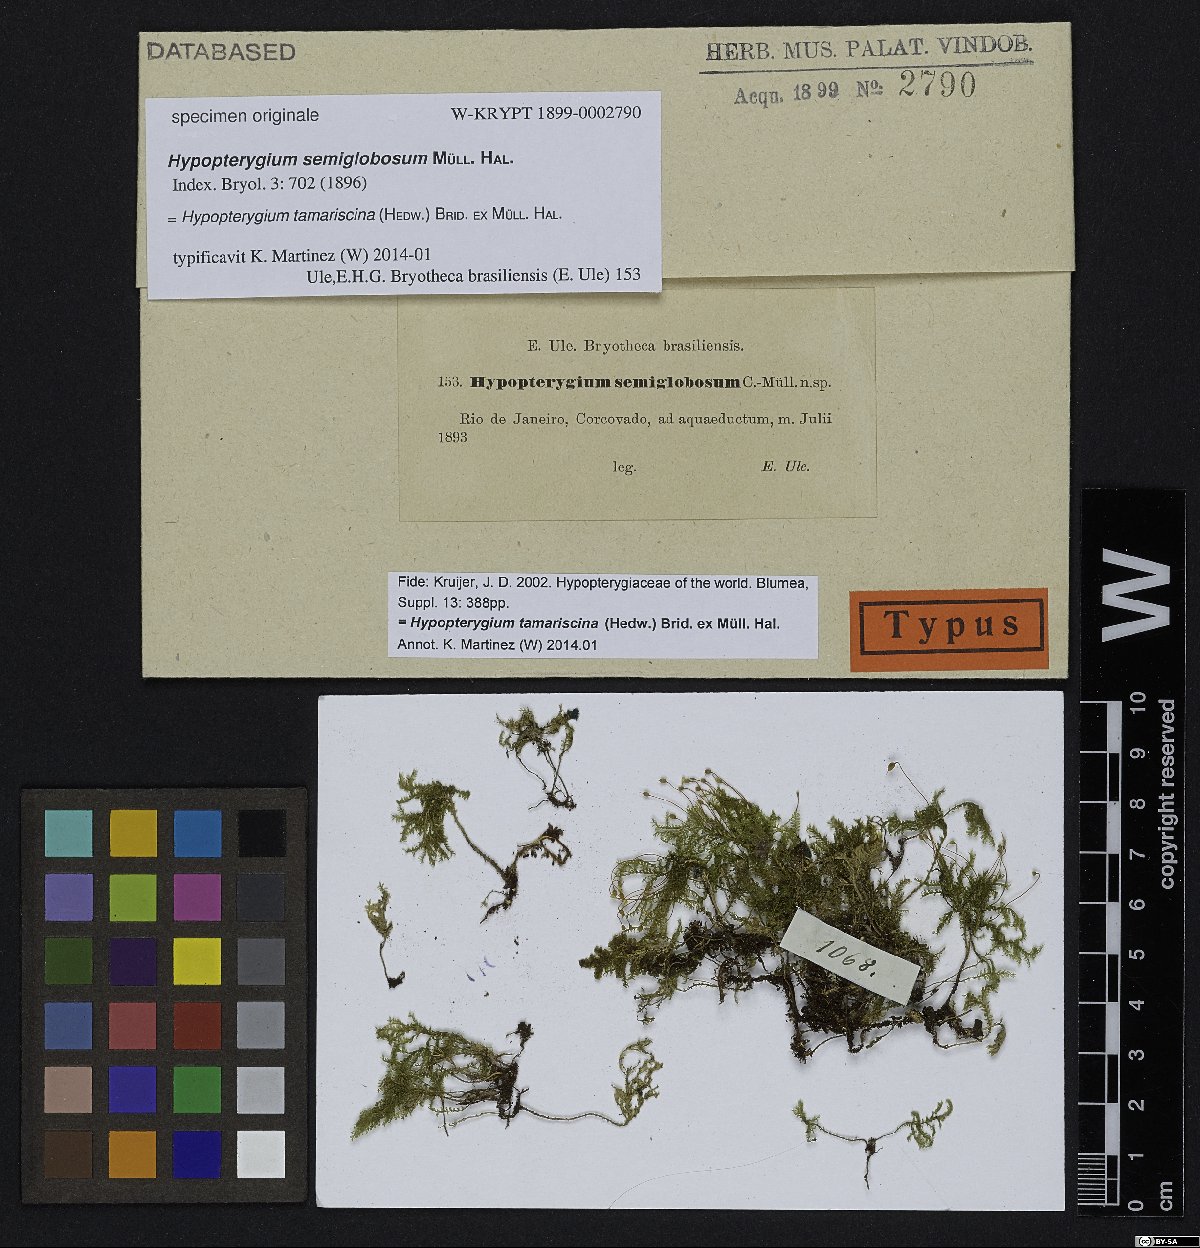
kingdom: Plantae
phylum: Bryophyta
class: Bryopsida
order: Hypopterygiales
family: Hypopterygiaceae
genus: Hypopterygium
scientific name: Hypopterygium
